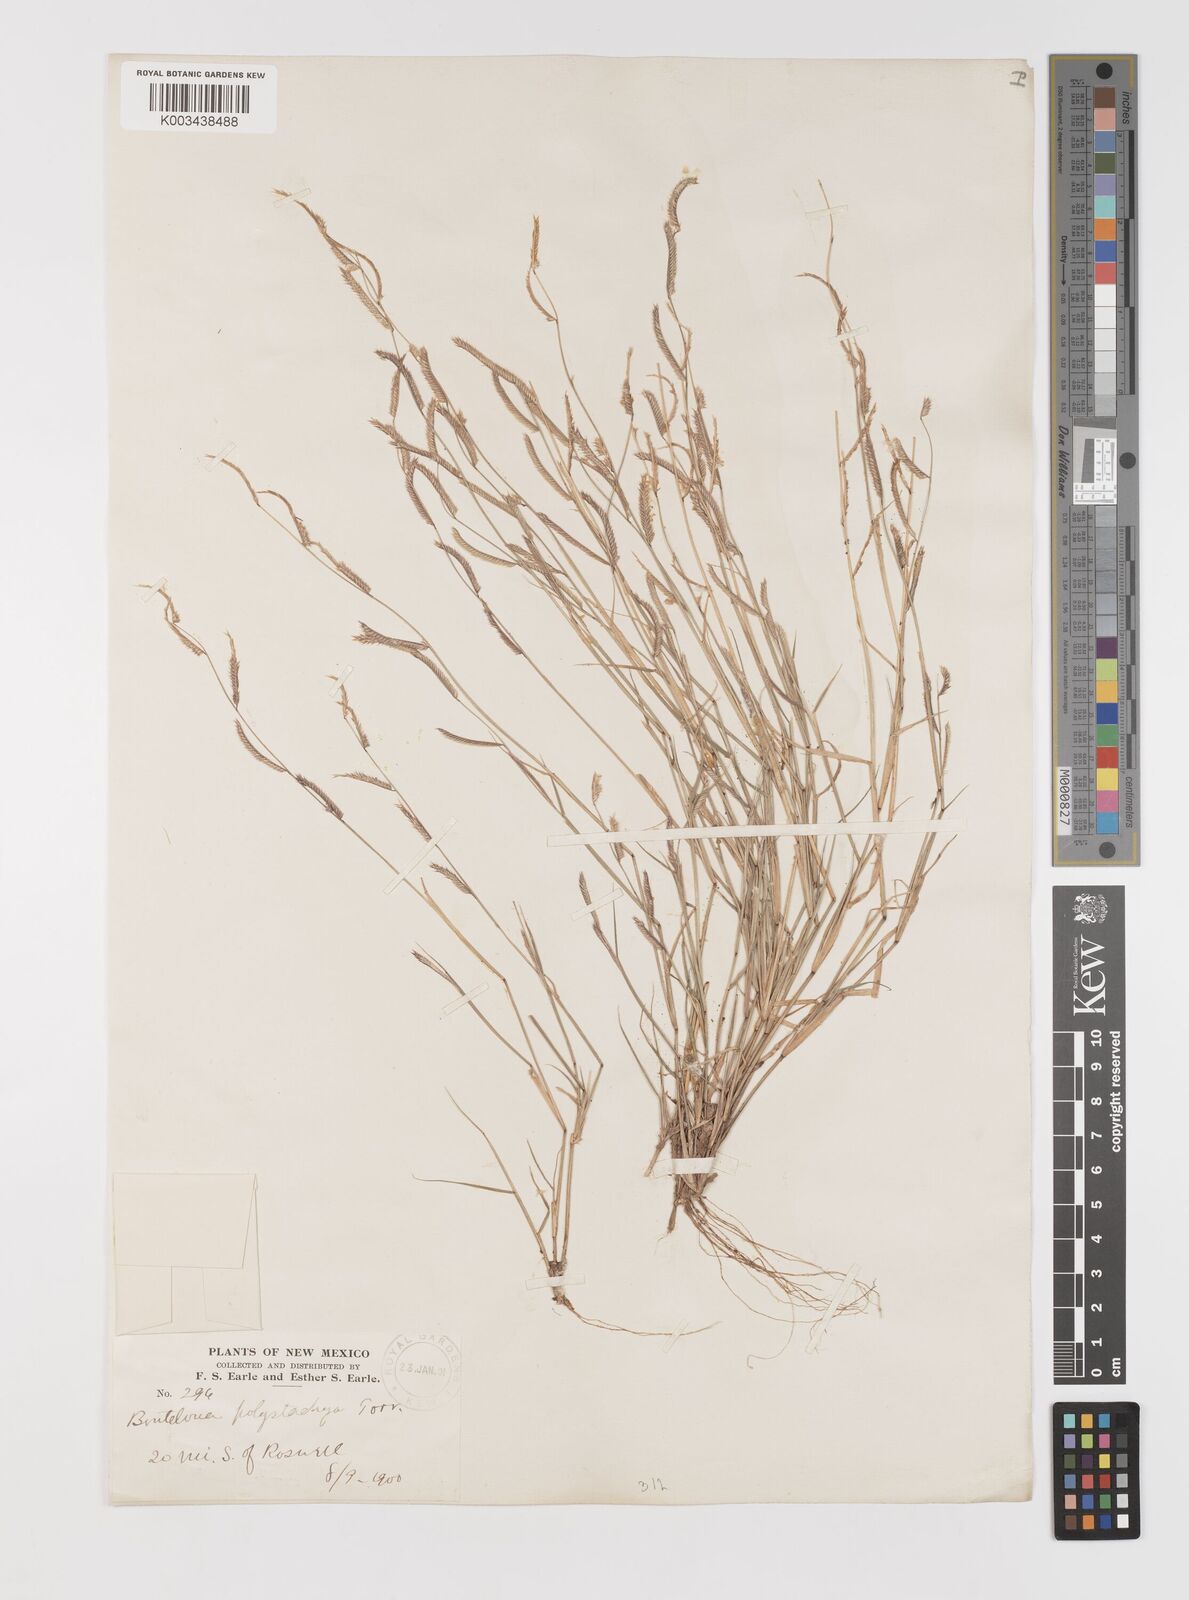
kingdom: Plantae
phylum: Tracheophyta
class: Liliopsida
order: Poales
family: Poaceae
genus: Bouteloua
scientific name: Bouteloua
